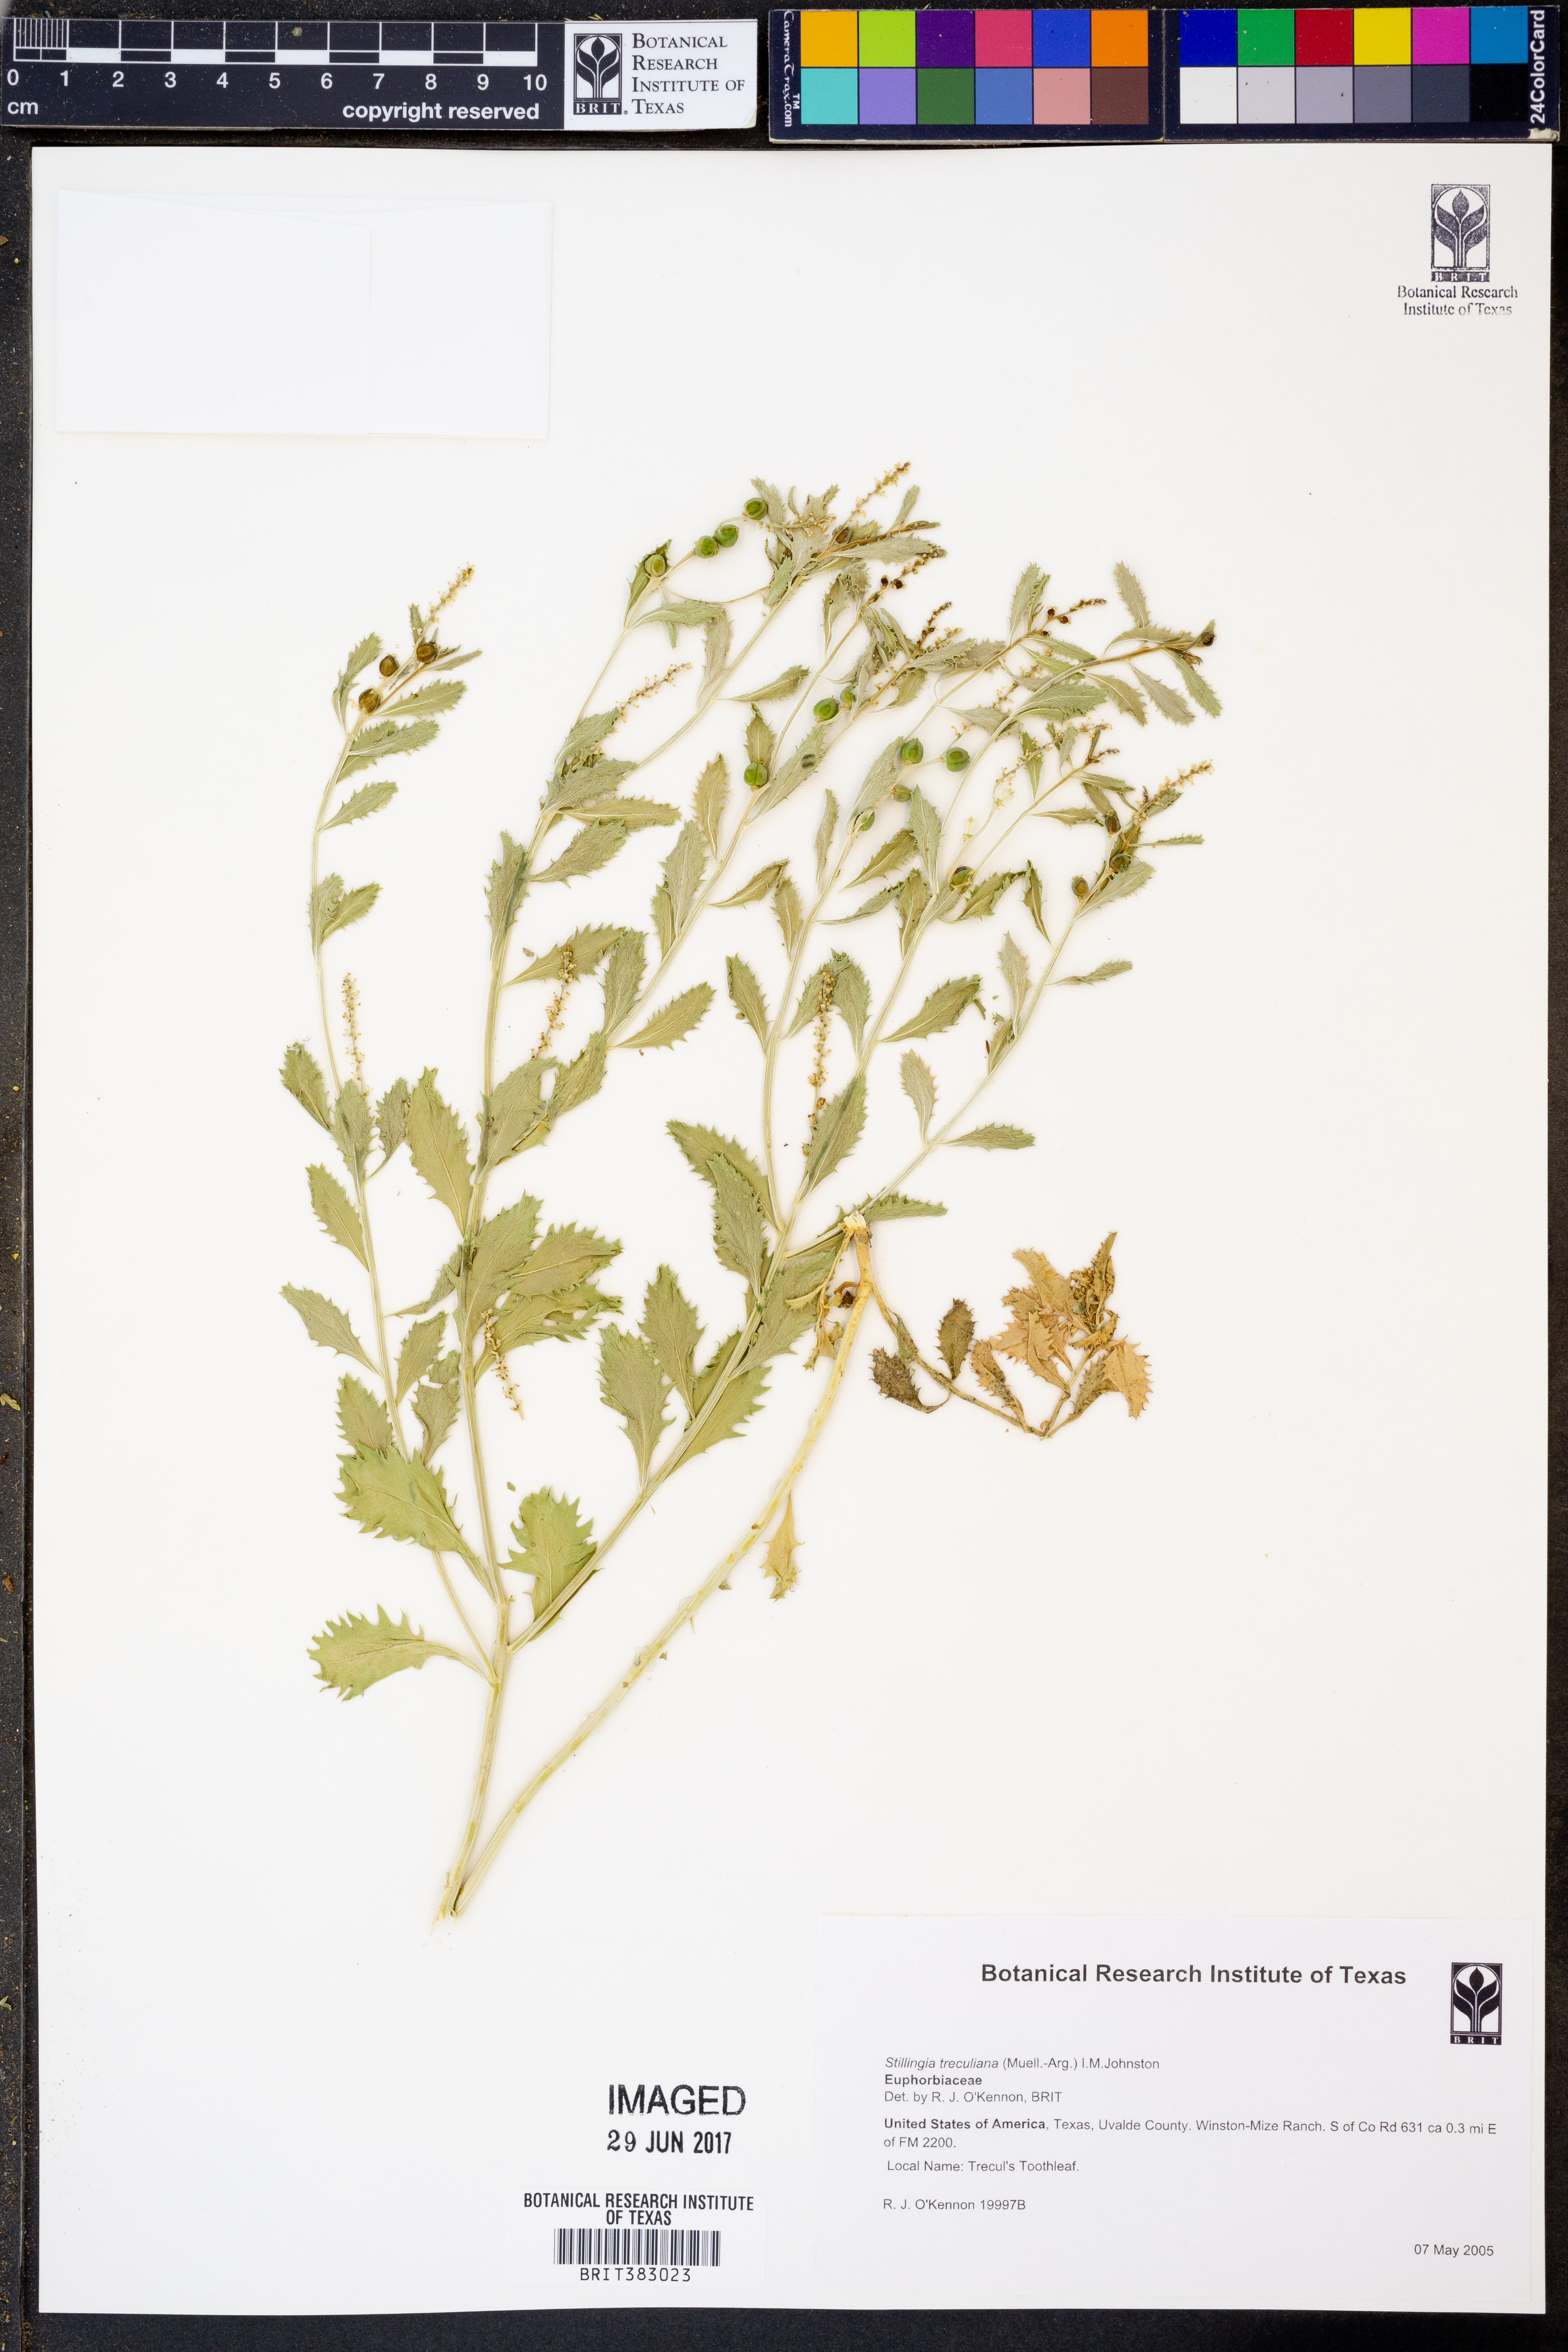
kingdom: Plantae
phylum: Tracheophyta
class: Magnoliopsida
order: Malpighiales
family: Euphorbiaceae
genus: Stillingia
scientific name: Stillingia treculiana
